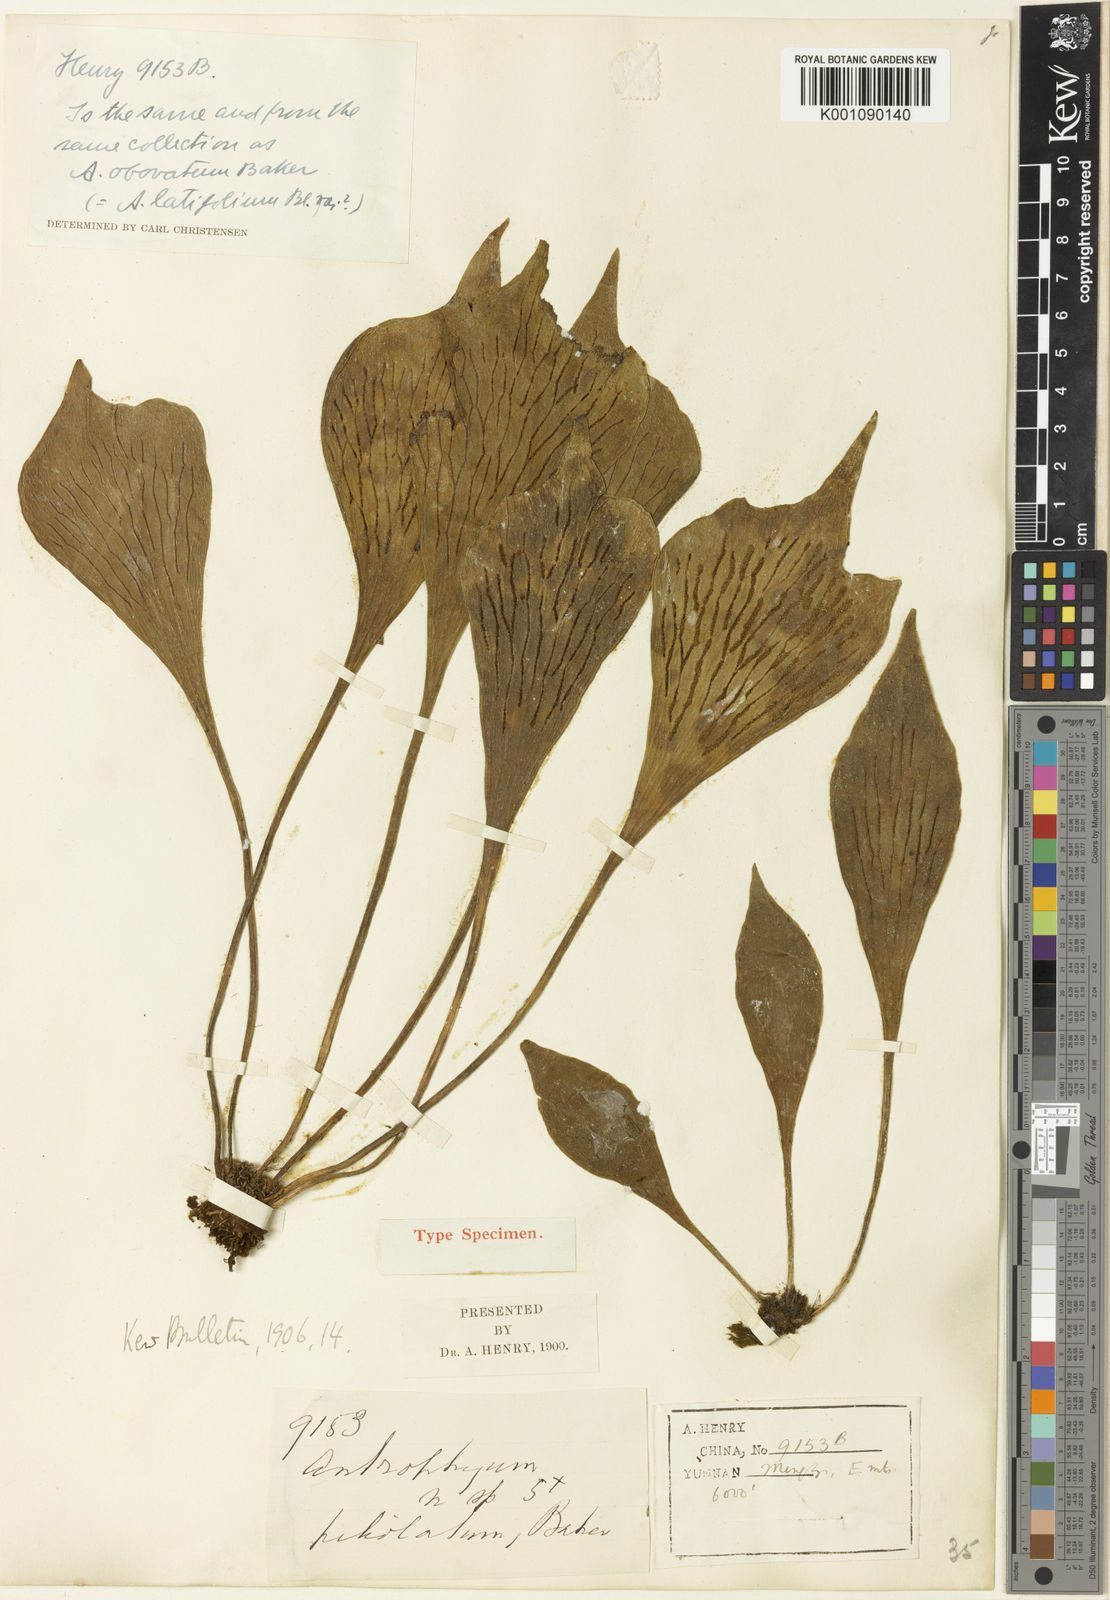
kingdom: Plantae
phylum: Tracheophyta
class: Polypodiopsida
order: Polypodiales
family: Pteridaceae
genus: Antrophyum
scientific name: Antrophyum obovatum
